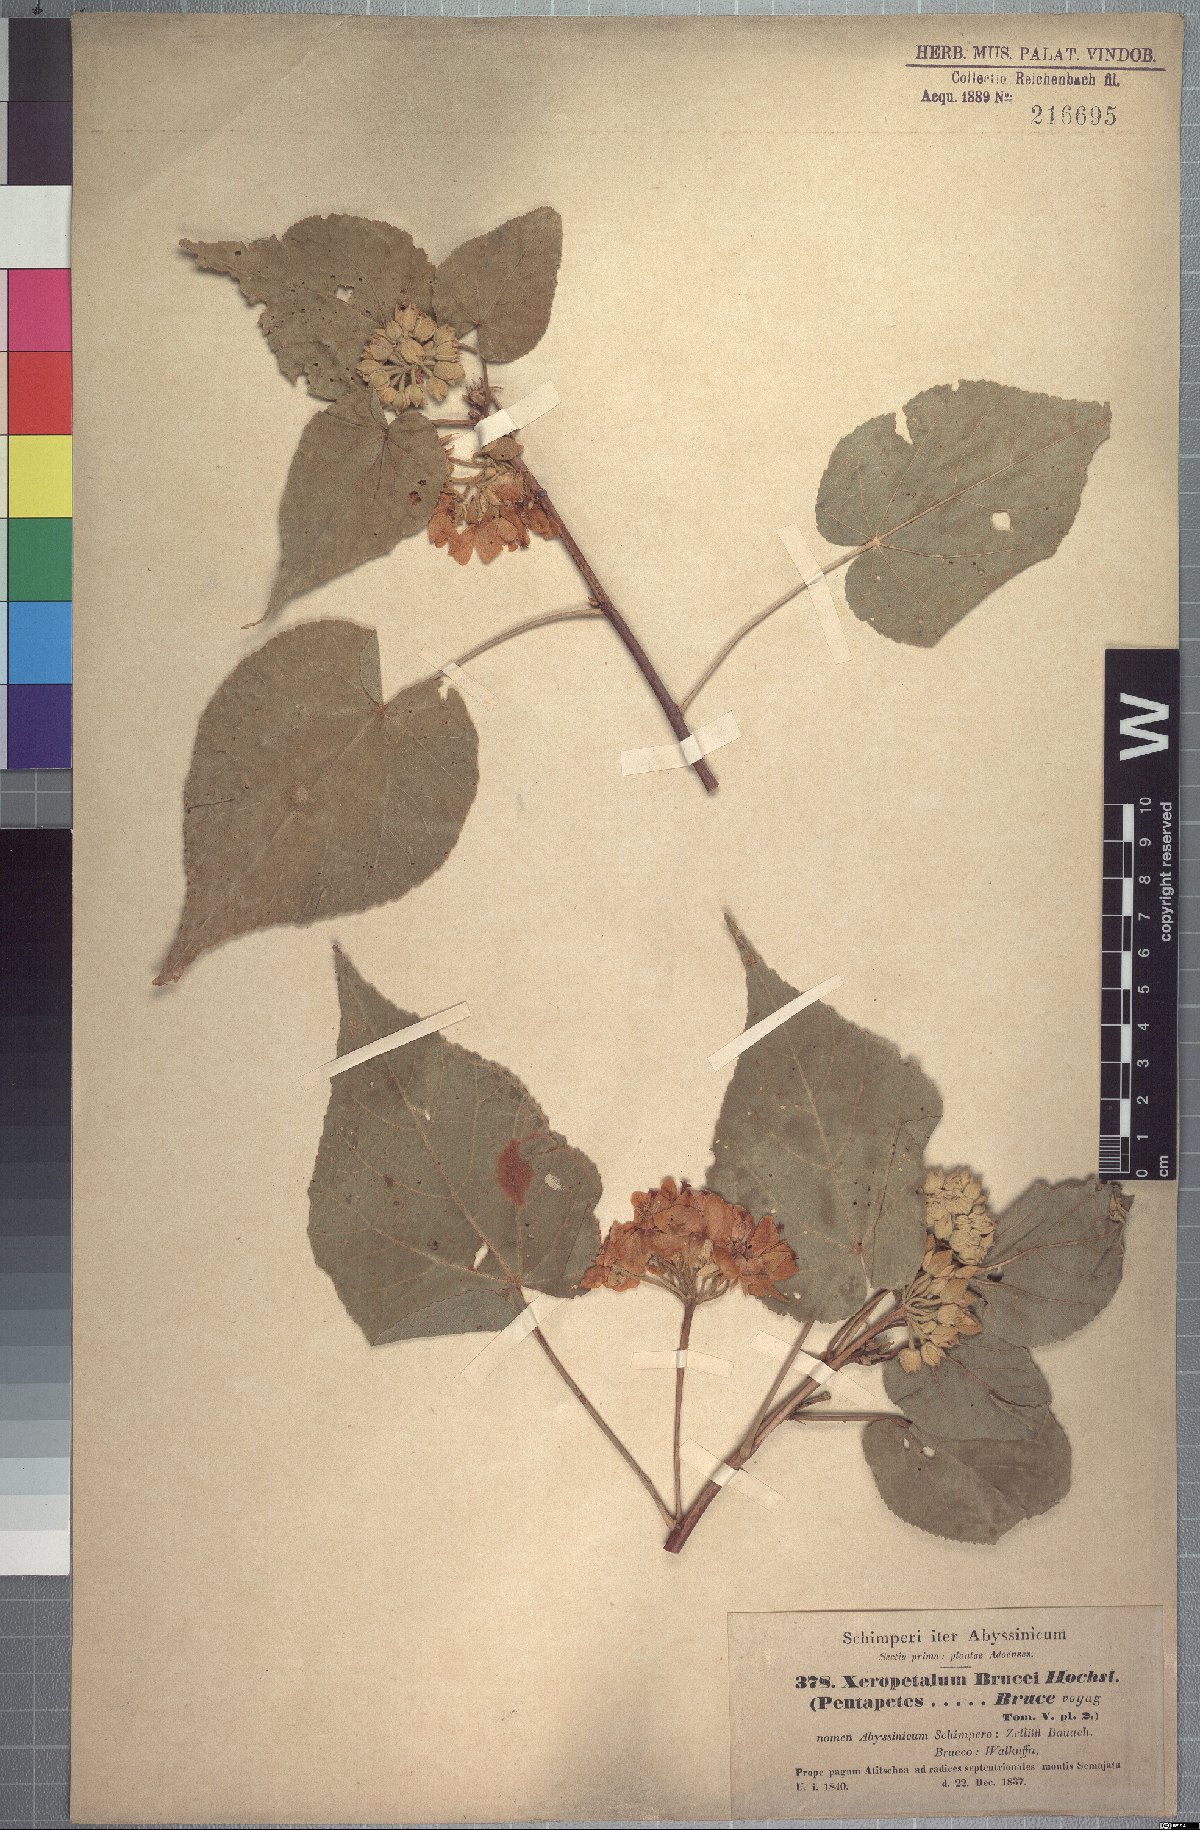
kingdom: Plantae
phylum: Tracheophyta
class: Magnoliopsida
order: Malvales
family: Malvaceae
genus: Dombeya
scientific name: Dombeya torrida
